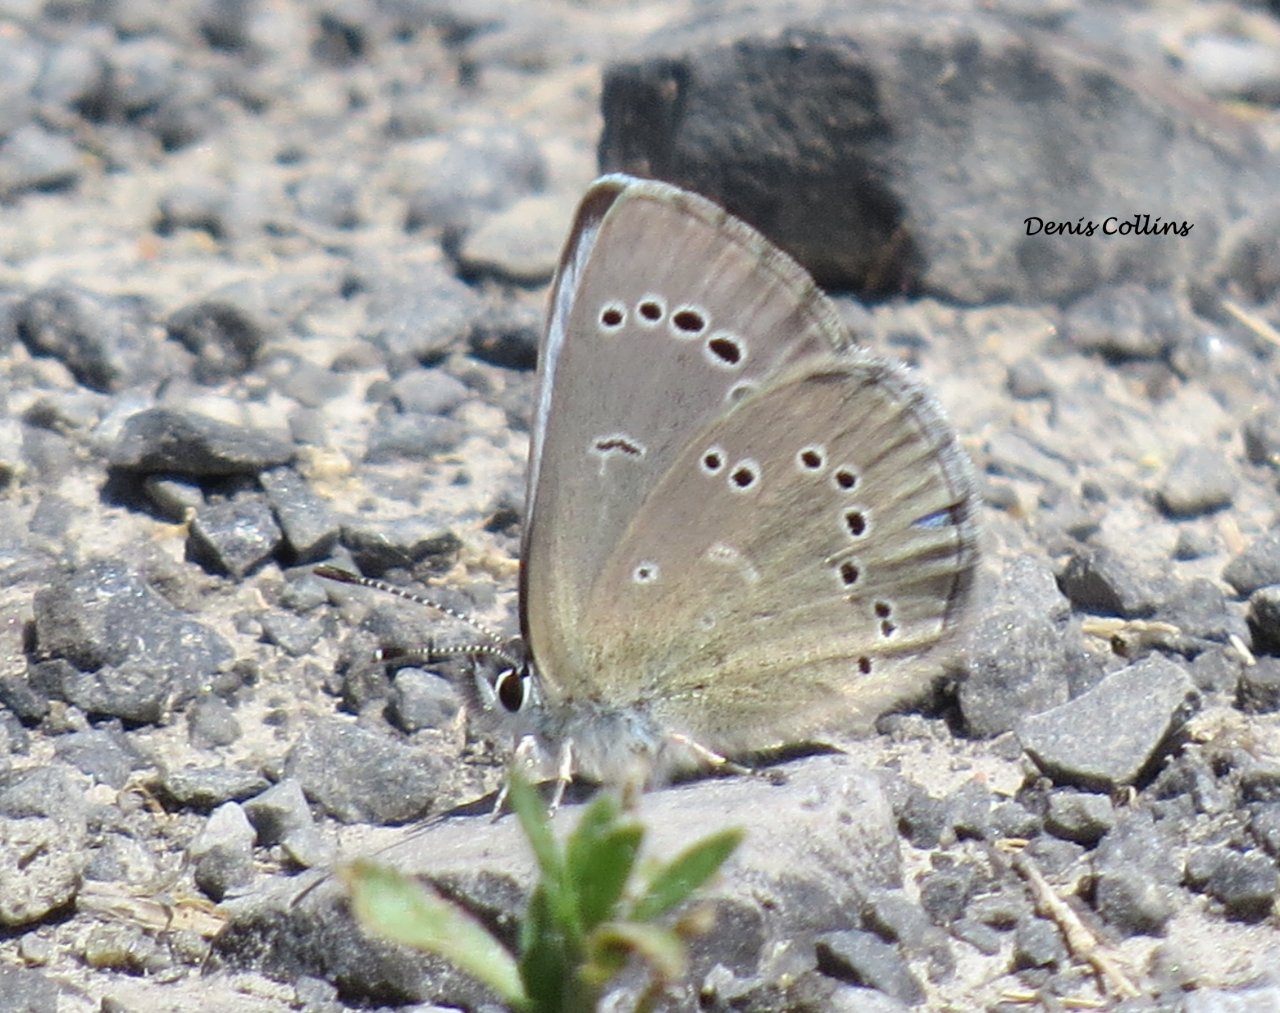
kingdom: Animalia
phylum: Arthropoda
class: Insecta
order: Lepidoptera
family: Lycaenidae
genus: Glaucopsyche
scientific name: Glaucopsyche lygdamus
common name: Silvery Blue
